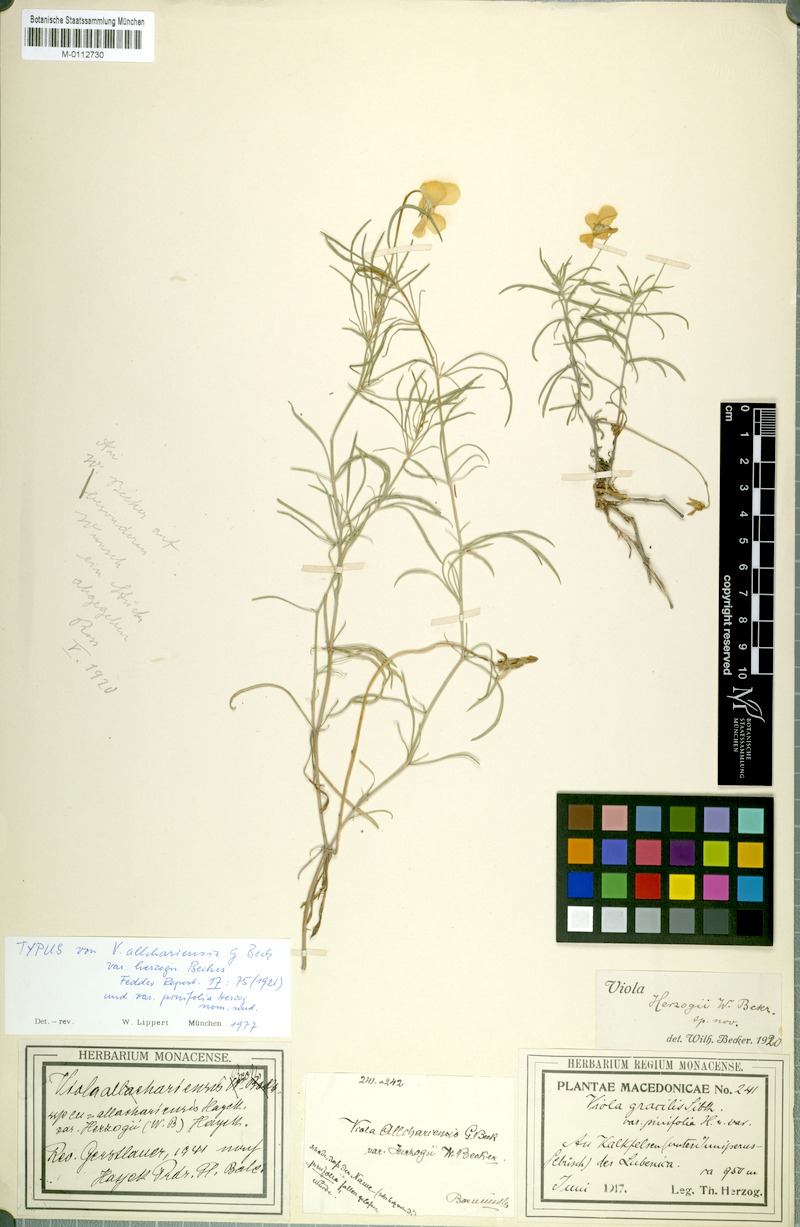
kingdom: Plantae
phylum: Tracheophyta
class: Magnoliopsida
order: Malpighiales
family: Violaceae
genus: Viola
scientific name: Viola allchariensis
